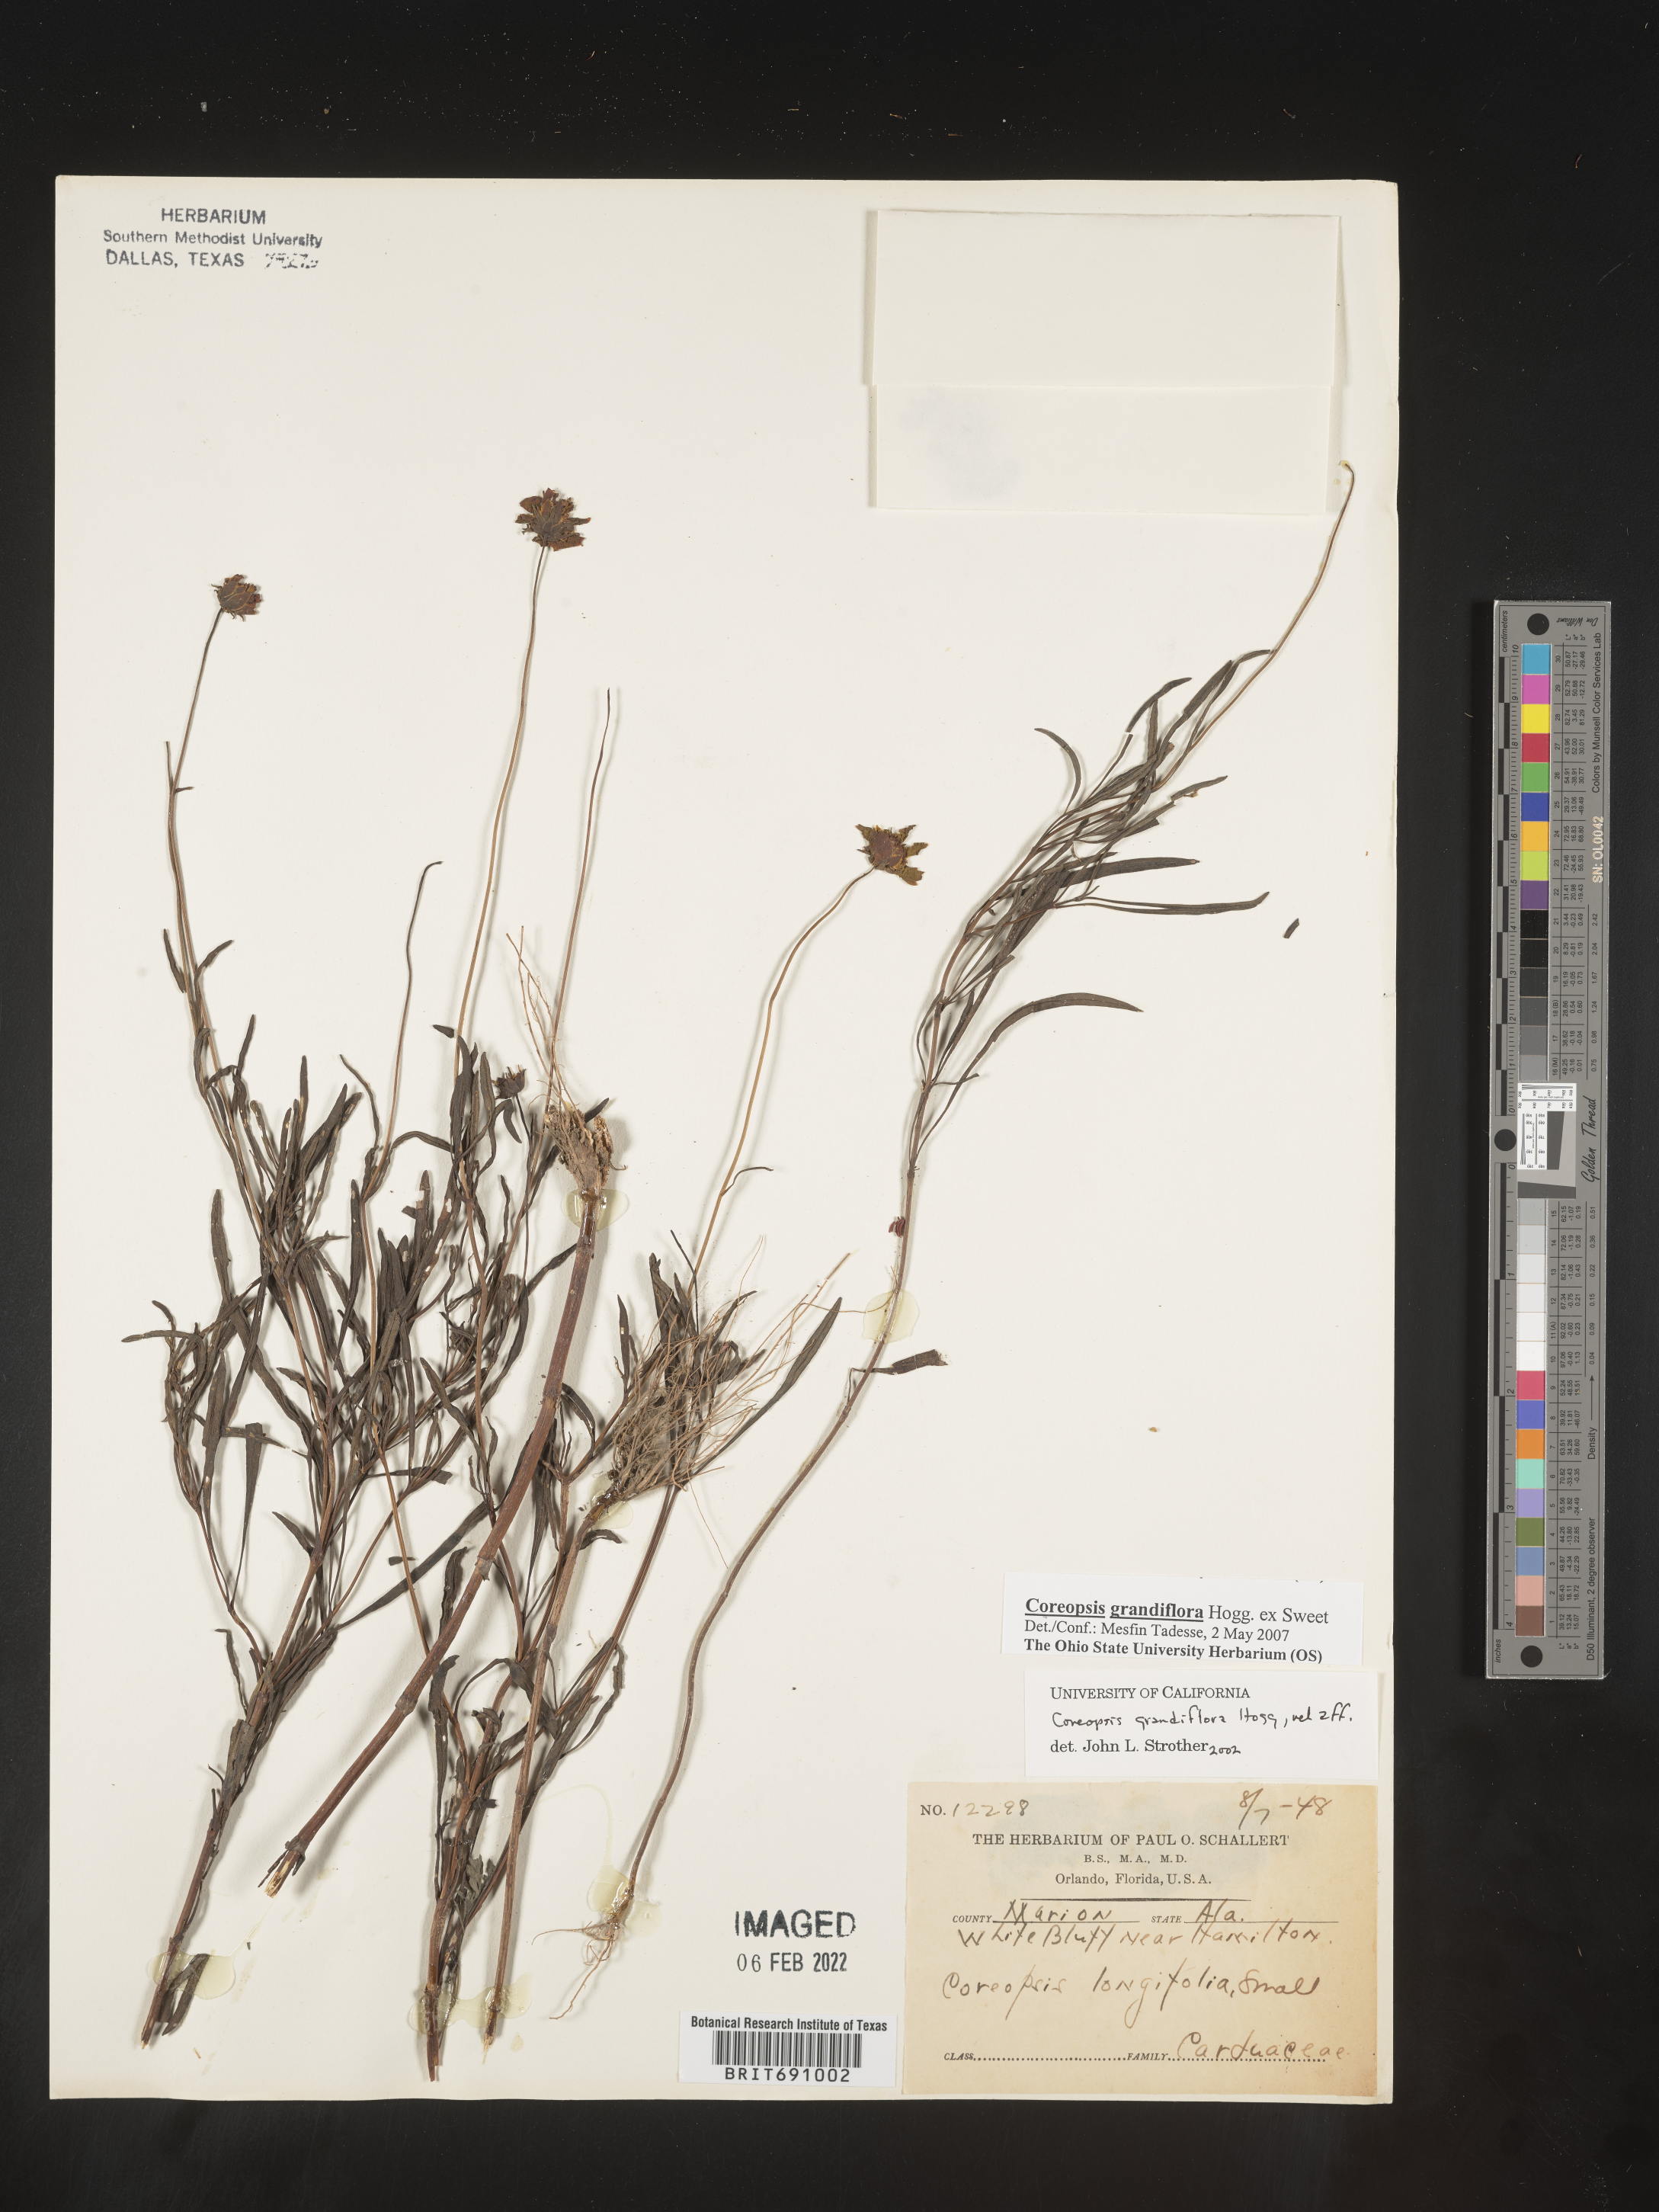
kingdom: Plantae
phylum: Tracheophyta
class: Magnoliopsida
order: Asterales
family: Asteraceae
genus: Coreopsis
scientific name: Coreopsis grandiflora
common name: Large-flowered tickseed
